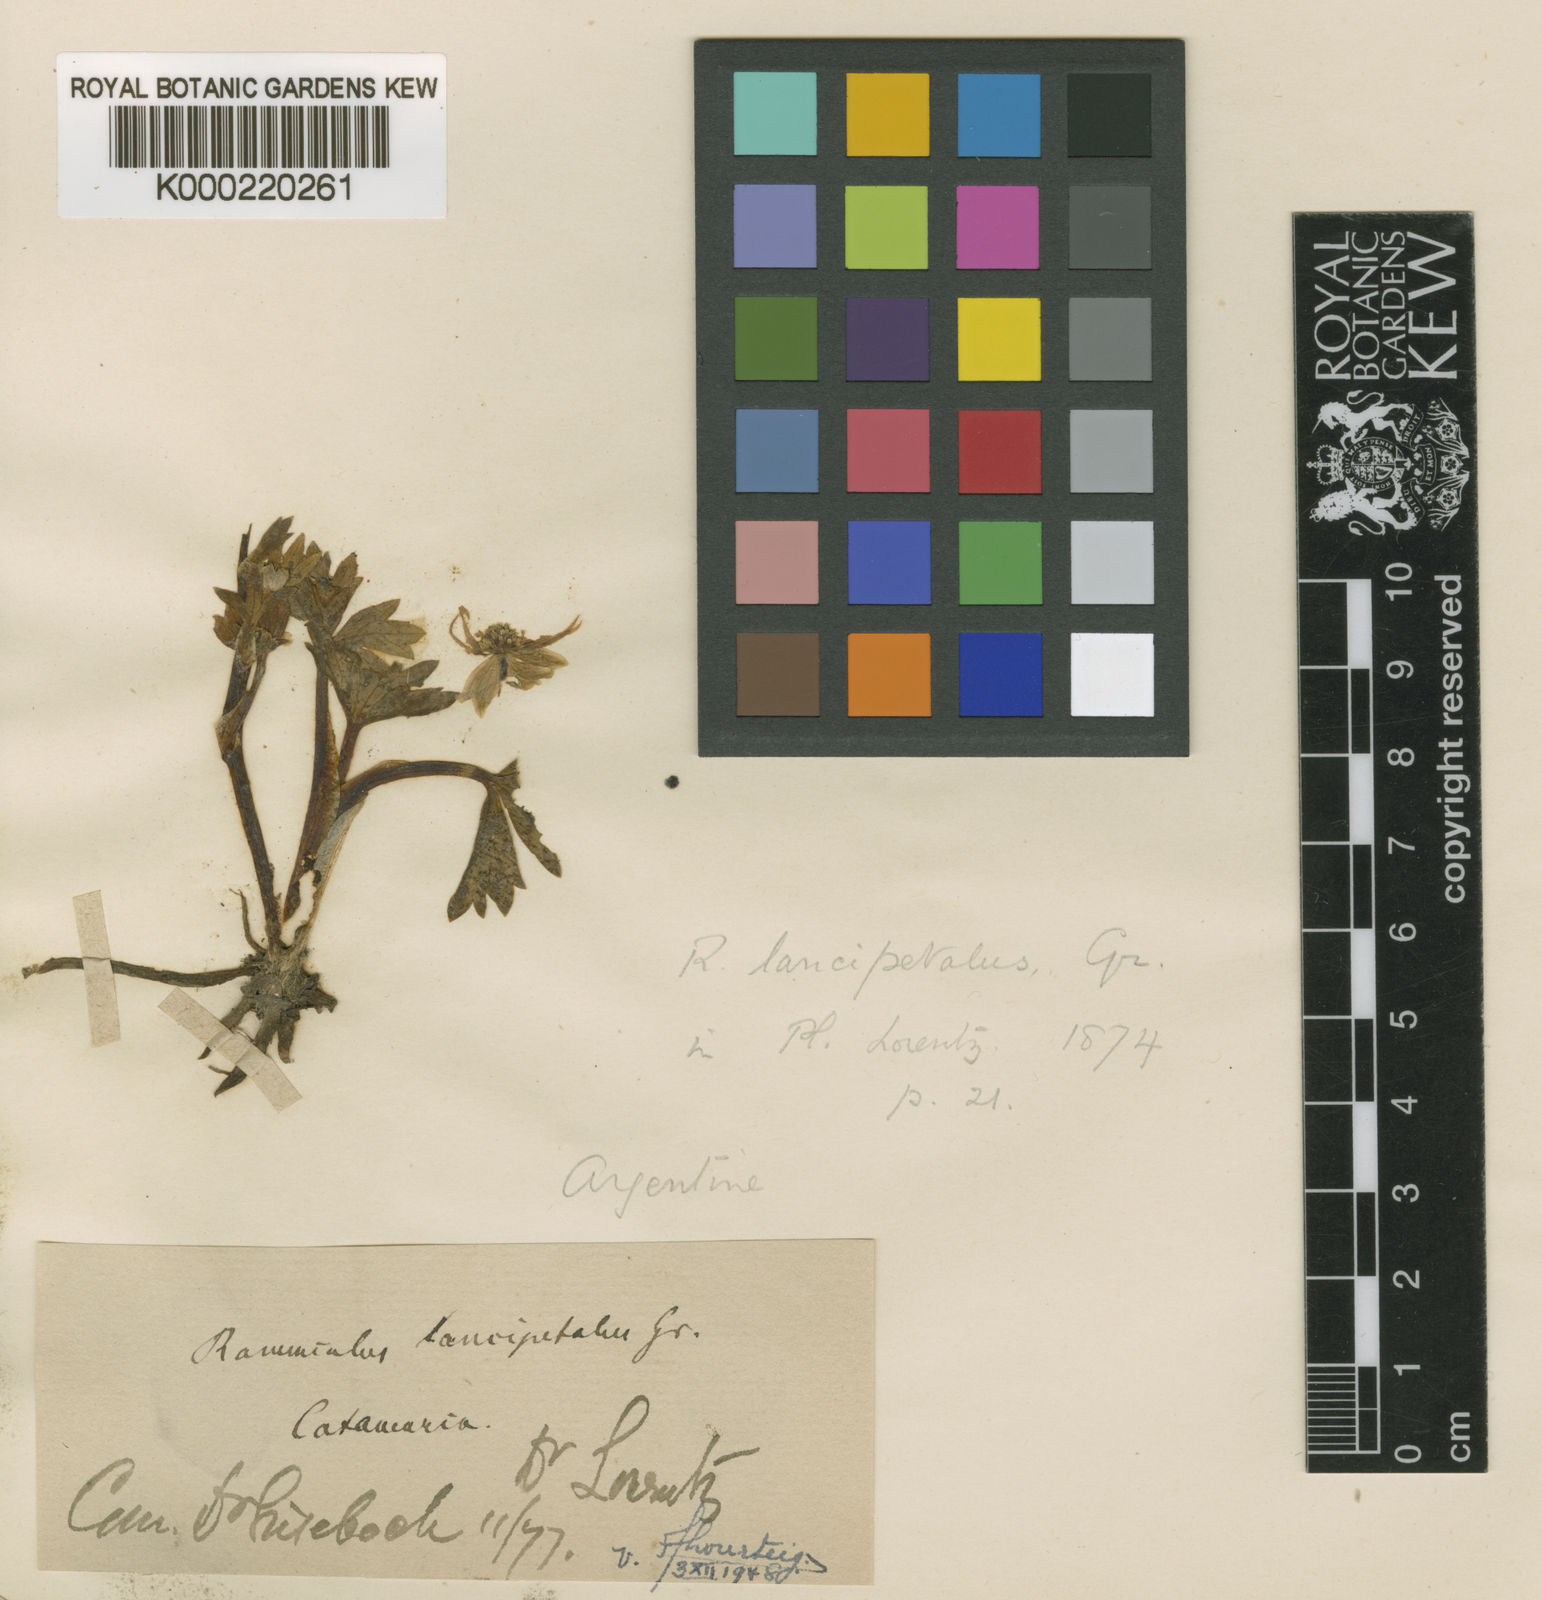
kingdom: Plantae
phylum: Tracheophyta
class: Magnoliopsida
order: Ranunculales
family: Ranunculaceae
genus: Ranunculus
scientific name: Ranunculus lancipetalus
